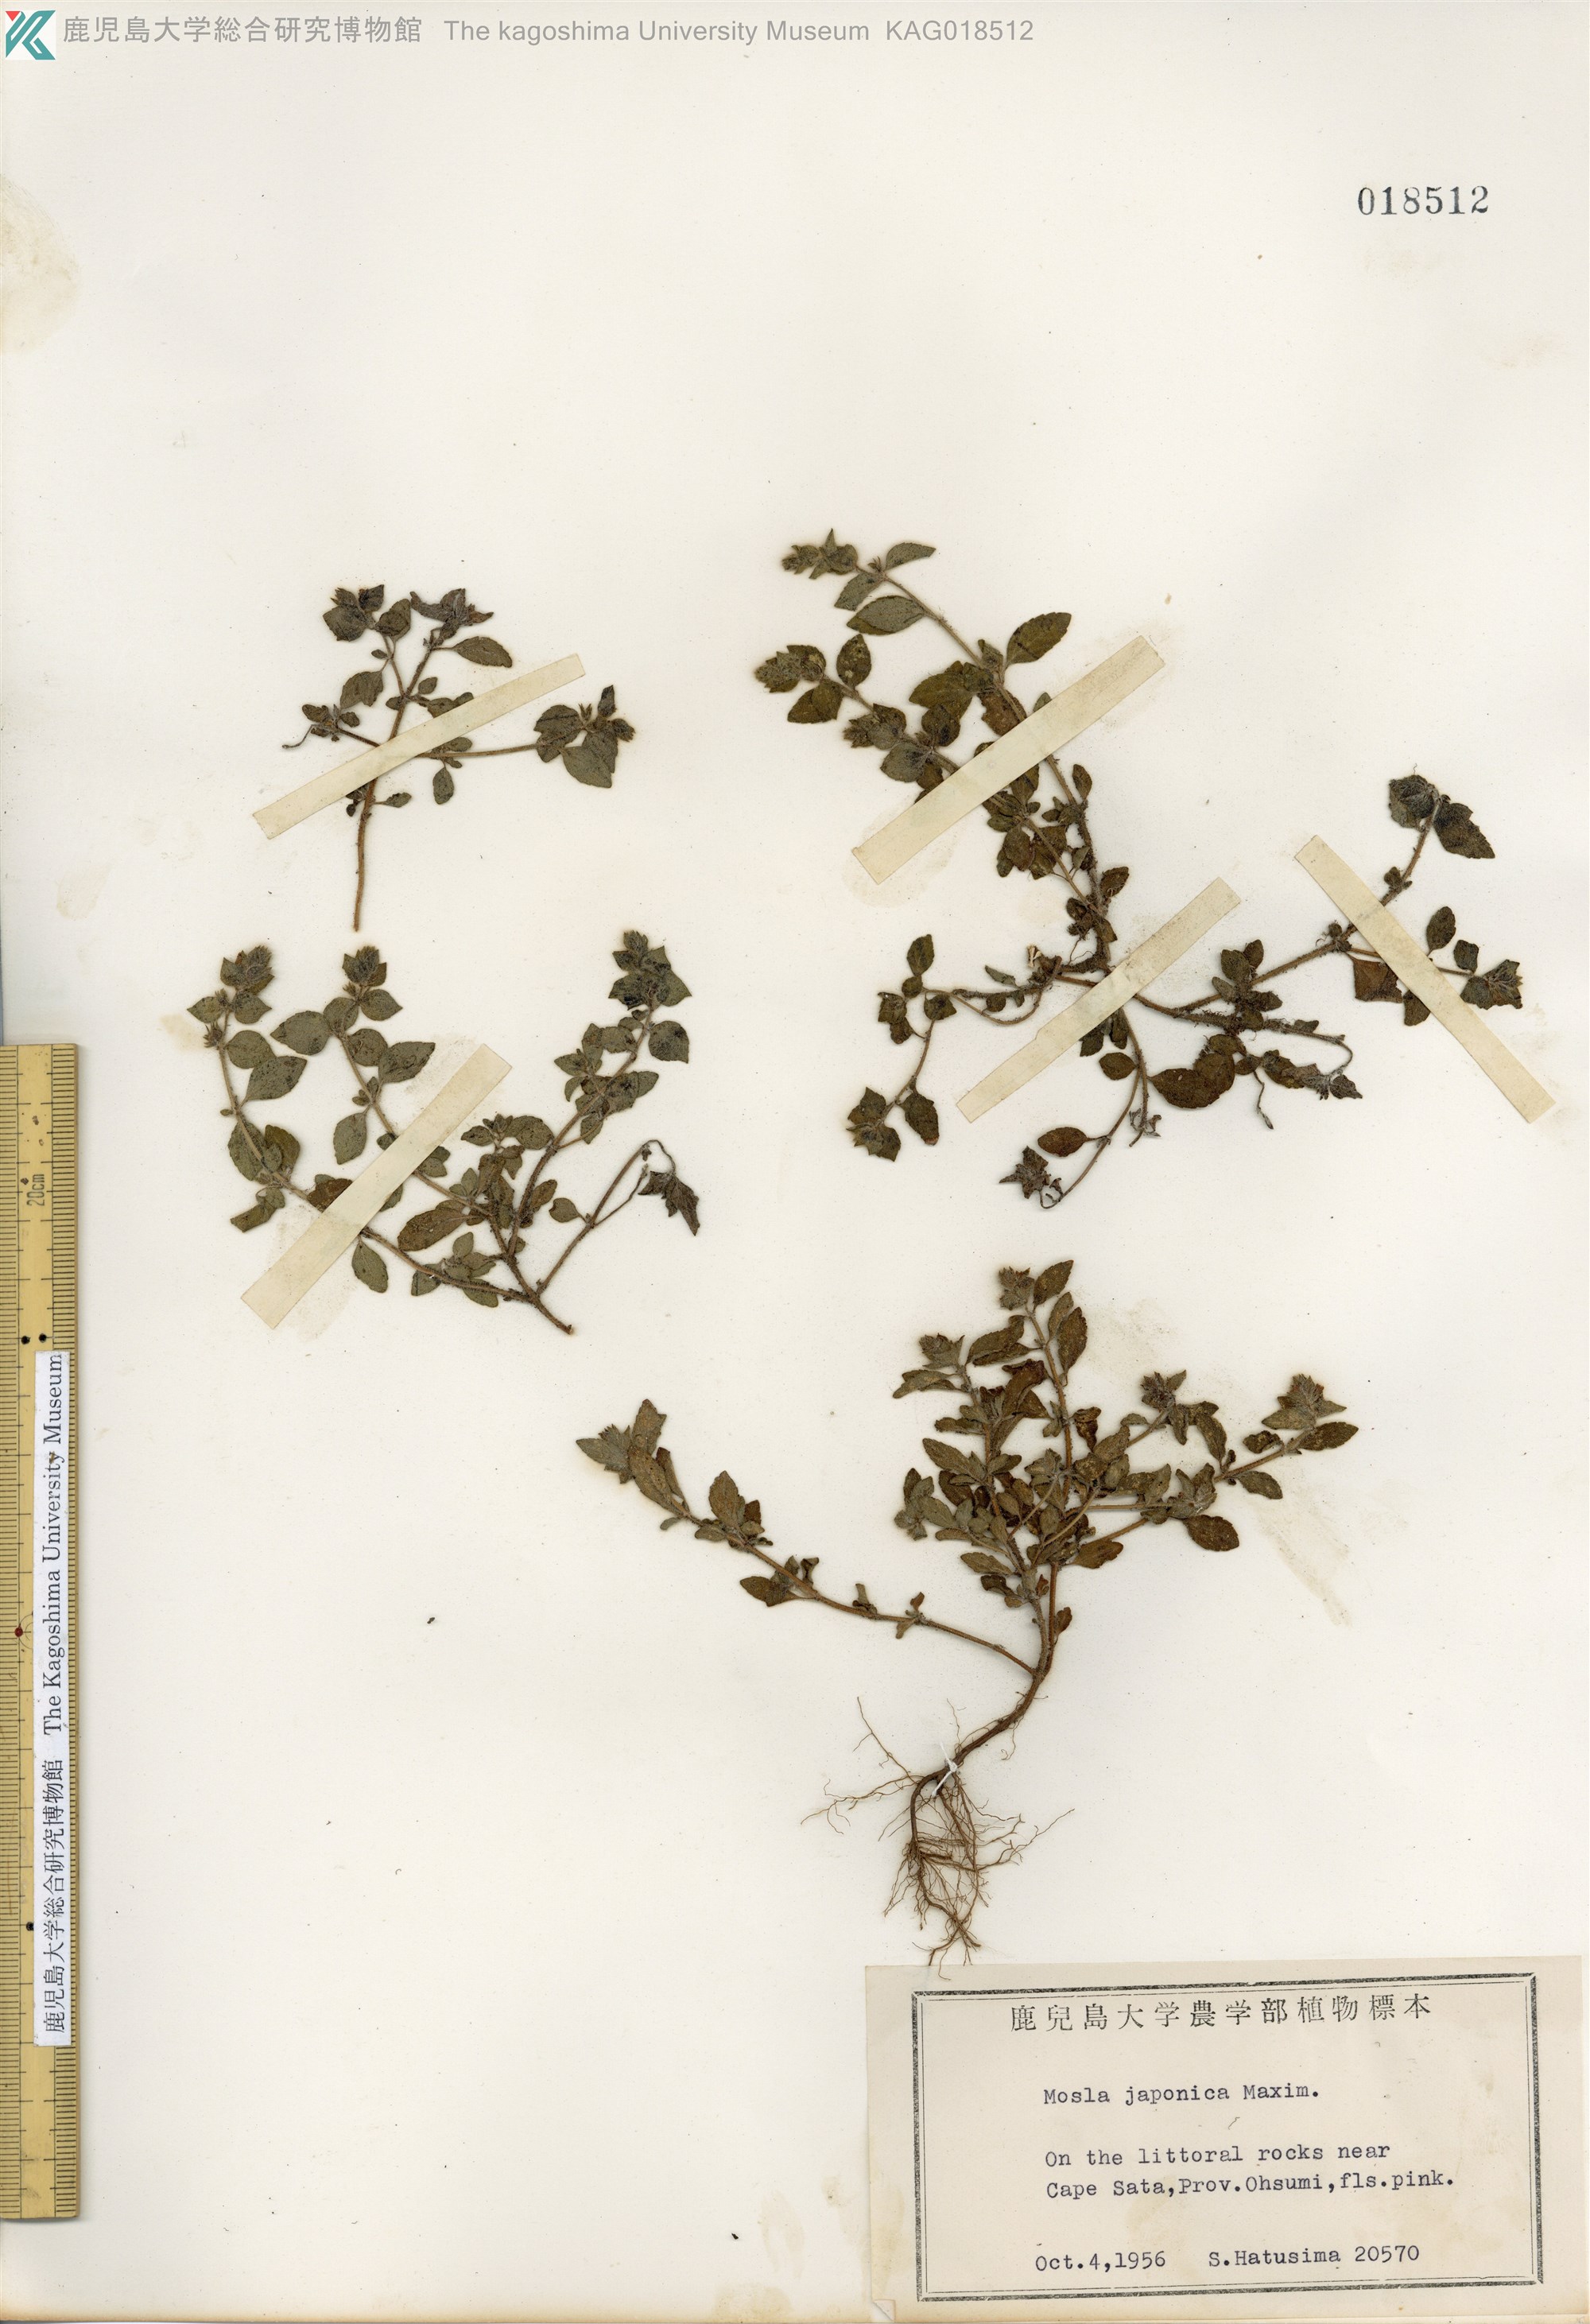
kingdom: Plantae
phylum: Tracheophyta
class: Magnoliopsida
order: Lamiales
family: Lamiaceae
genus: Mosla
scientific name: Mosla japonica
